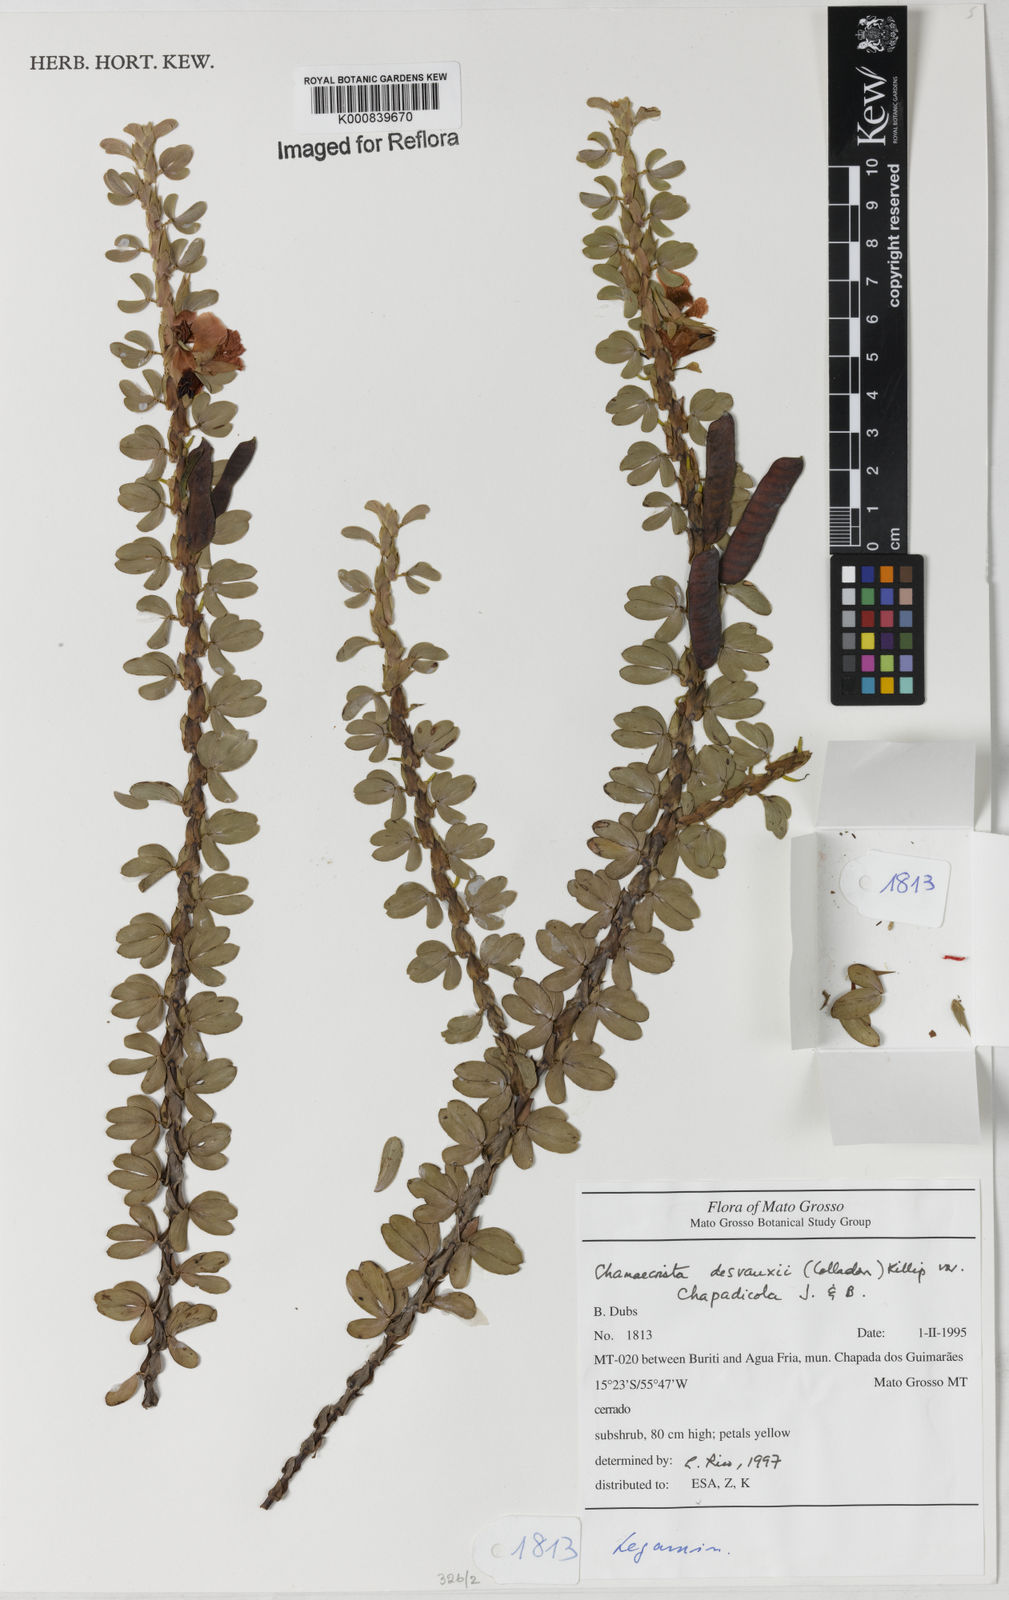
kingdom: Plantae
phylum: Tracheophyta
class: Magnoliopsida
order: Fabales
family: Fabaceae
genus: Chamaecrista
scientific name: Chamaecrista desvauxii
